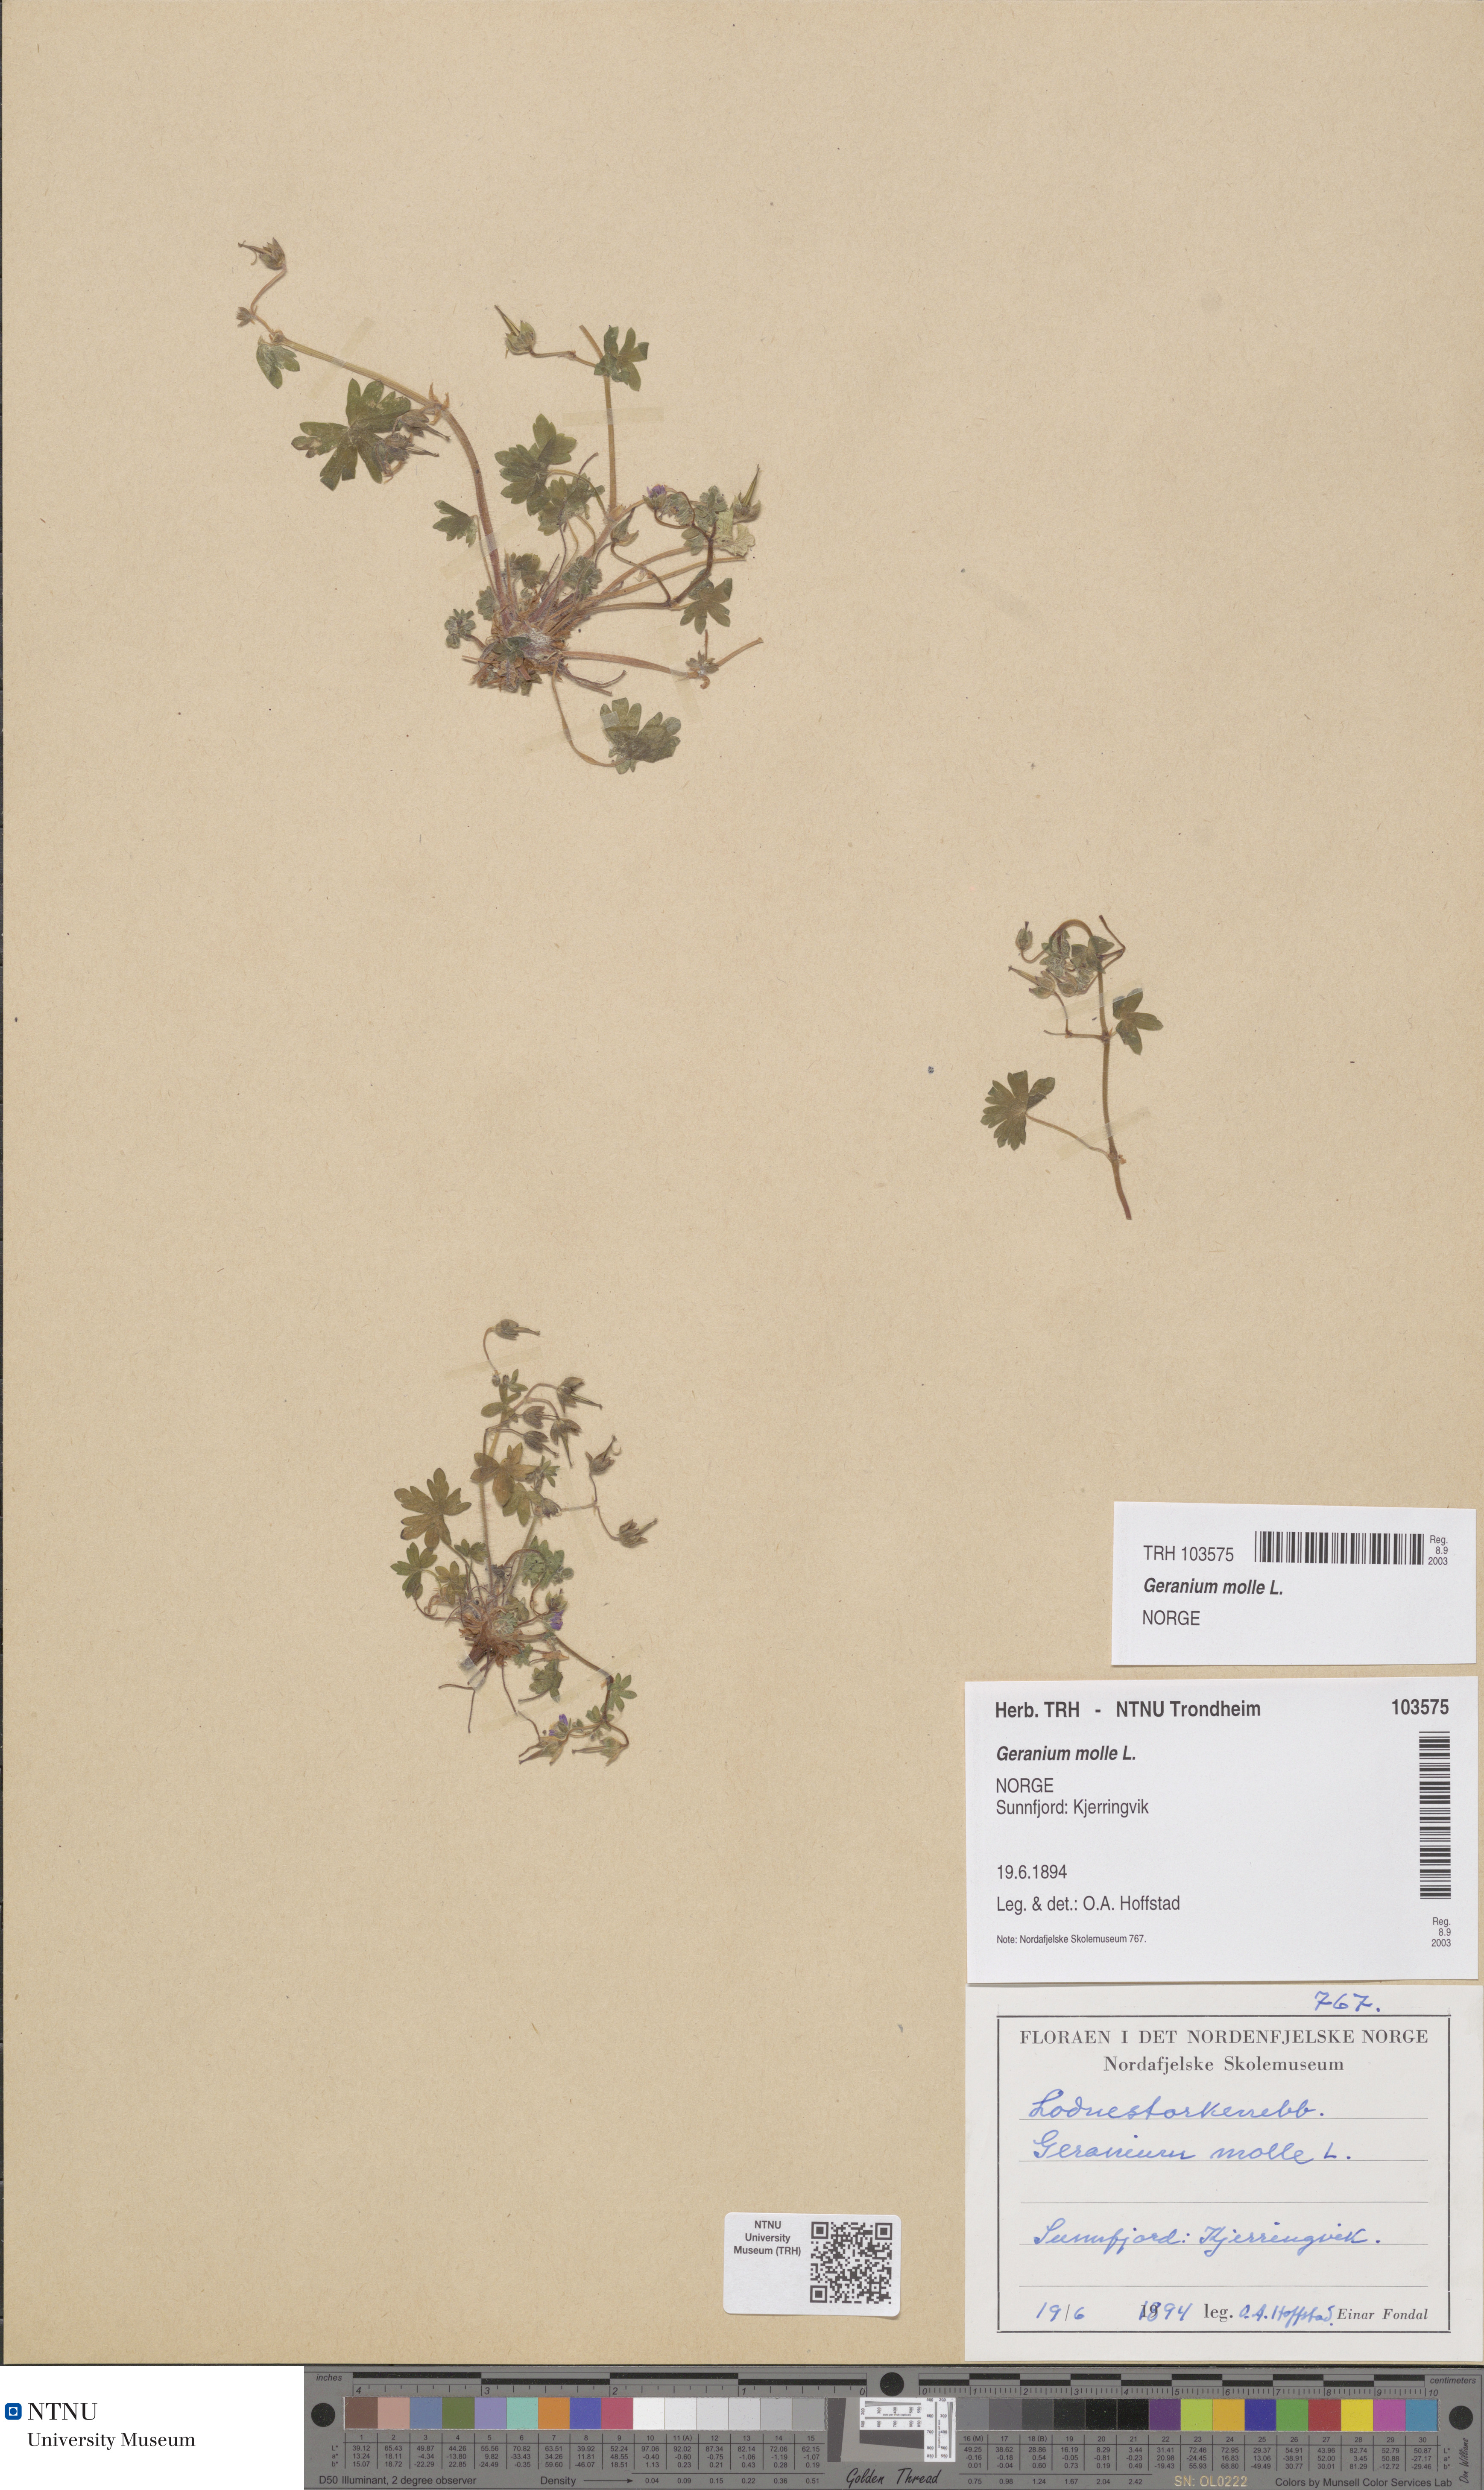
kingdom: Plantae
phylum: Tracheophyta
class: Magnoliopsida
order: Geraniales
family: Geraniaceae
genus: Geranium
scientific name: Geranium molle
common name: Dove's-foot crane's-bill
